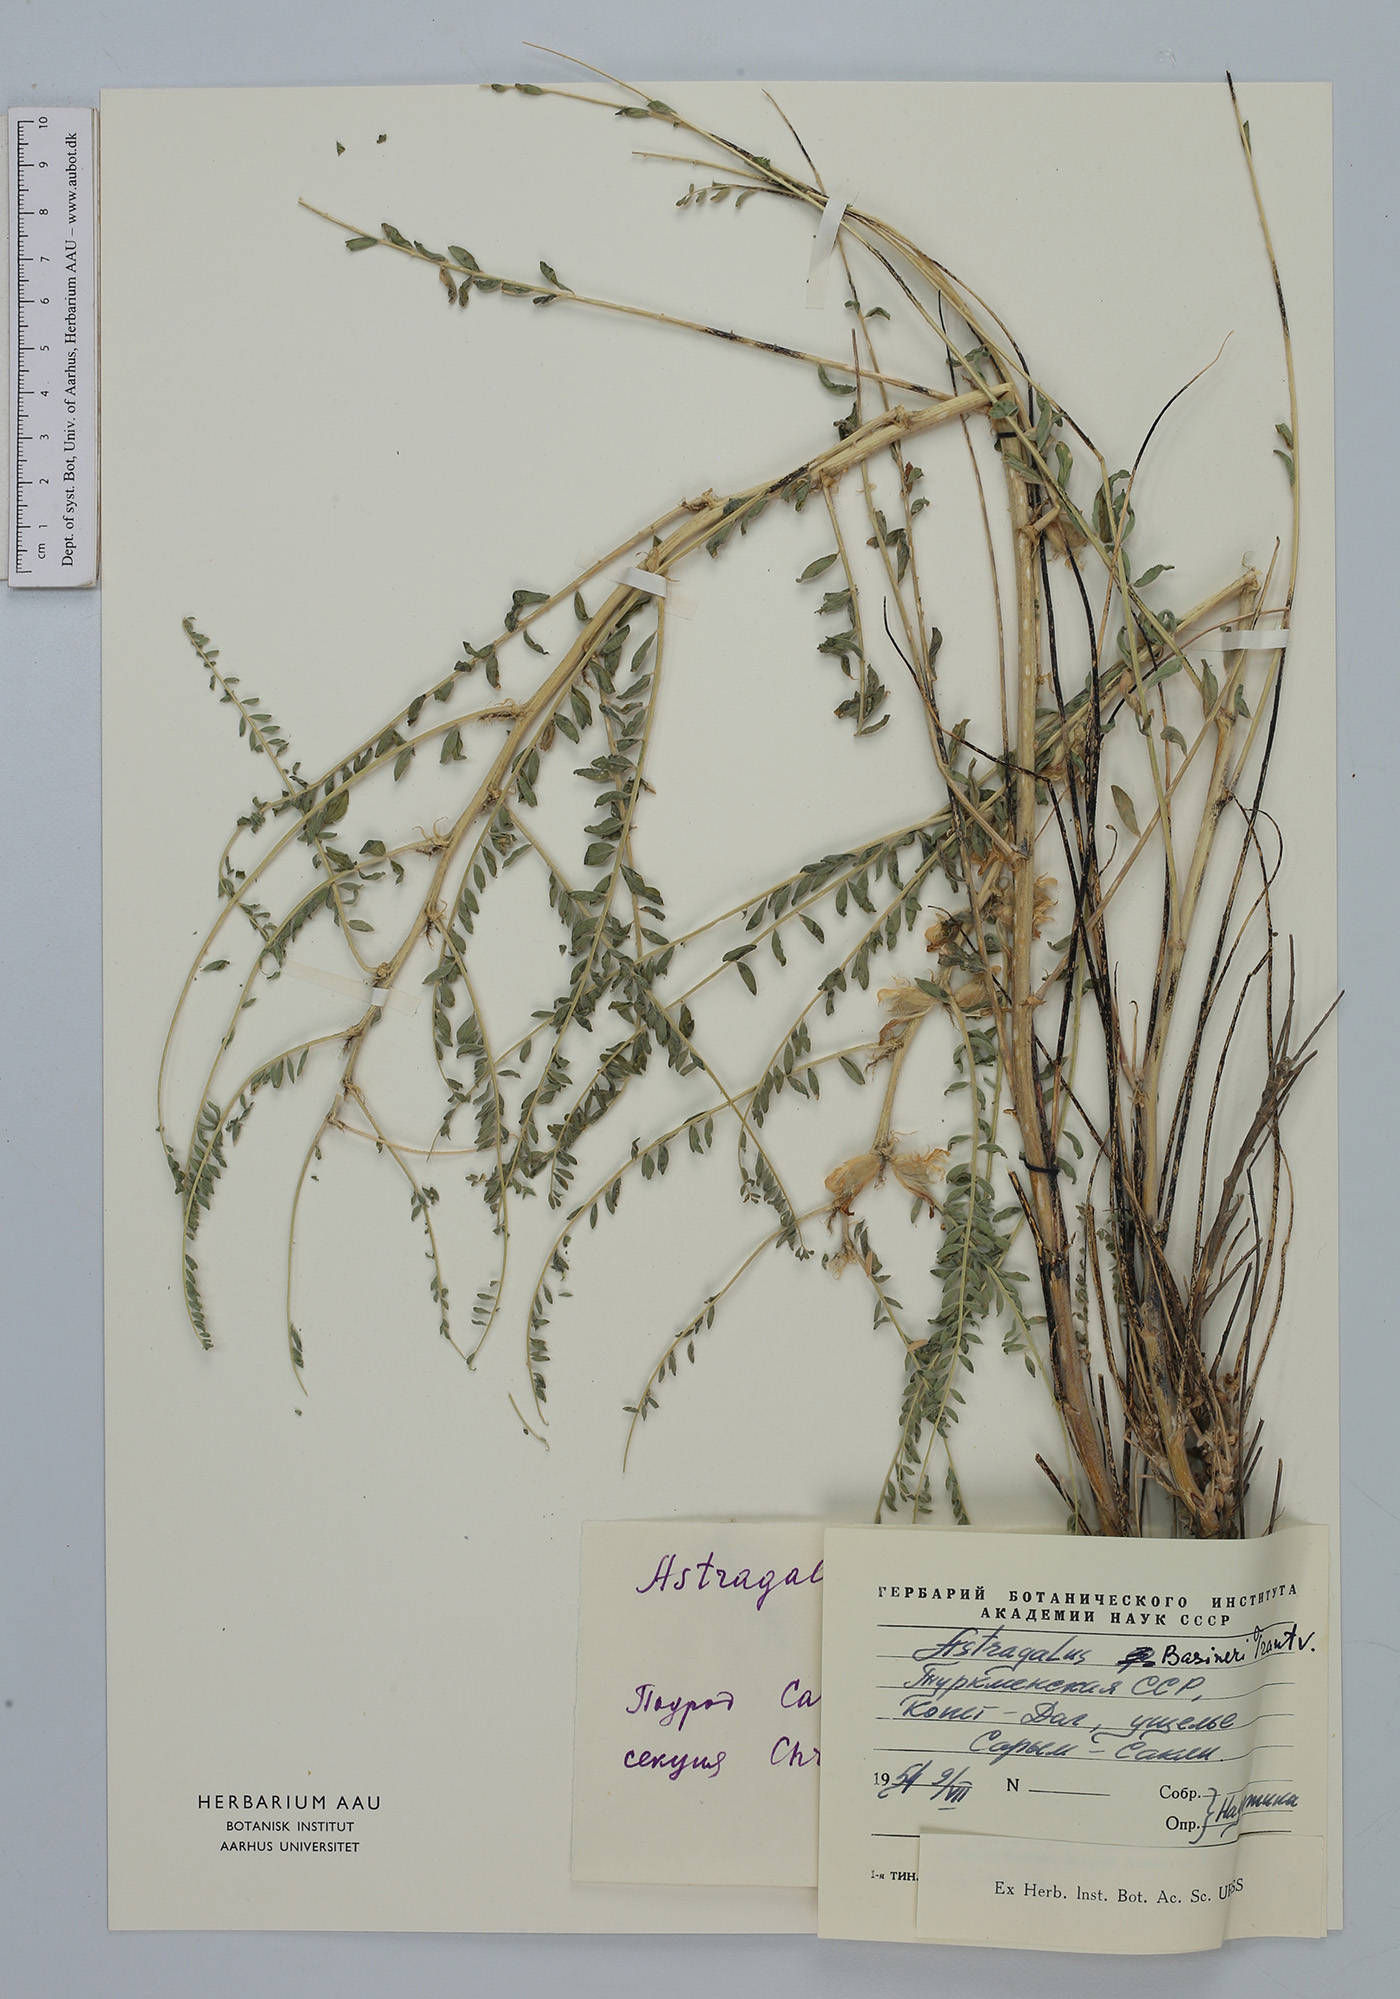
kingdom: Plantae
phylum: Tracheophyta
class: Magnoliopsida
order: Fabales
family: Fabaceae
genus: Astragalus
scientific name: Astragalus basineri
